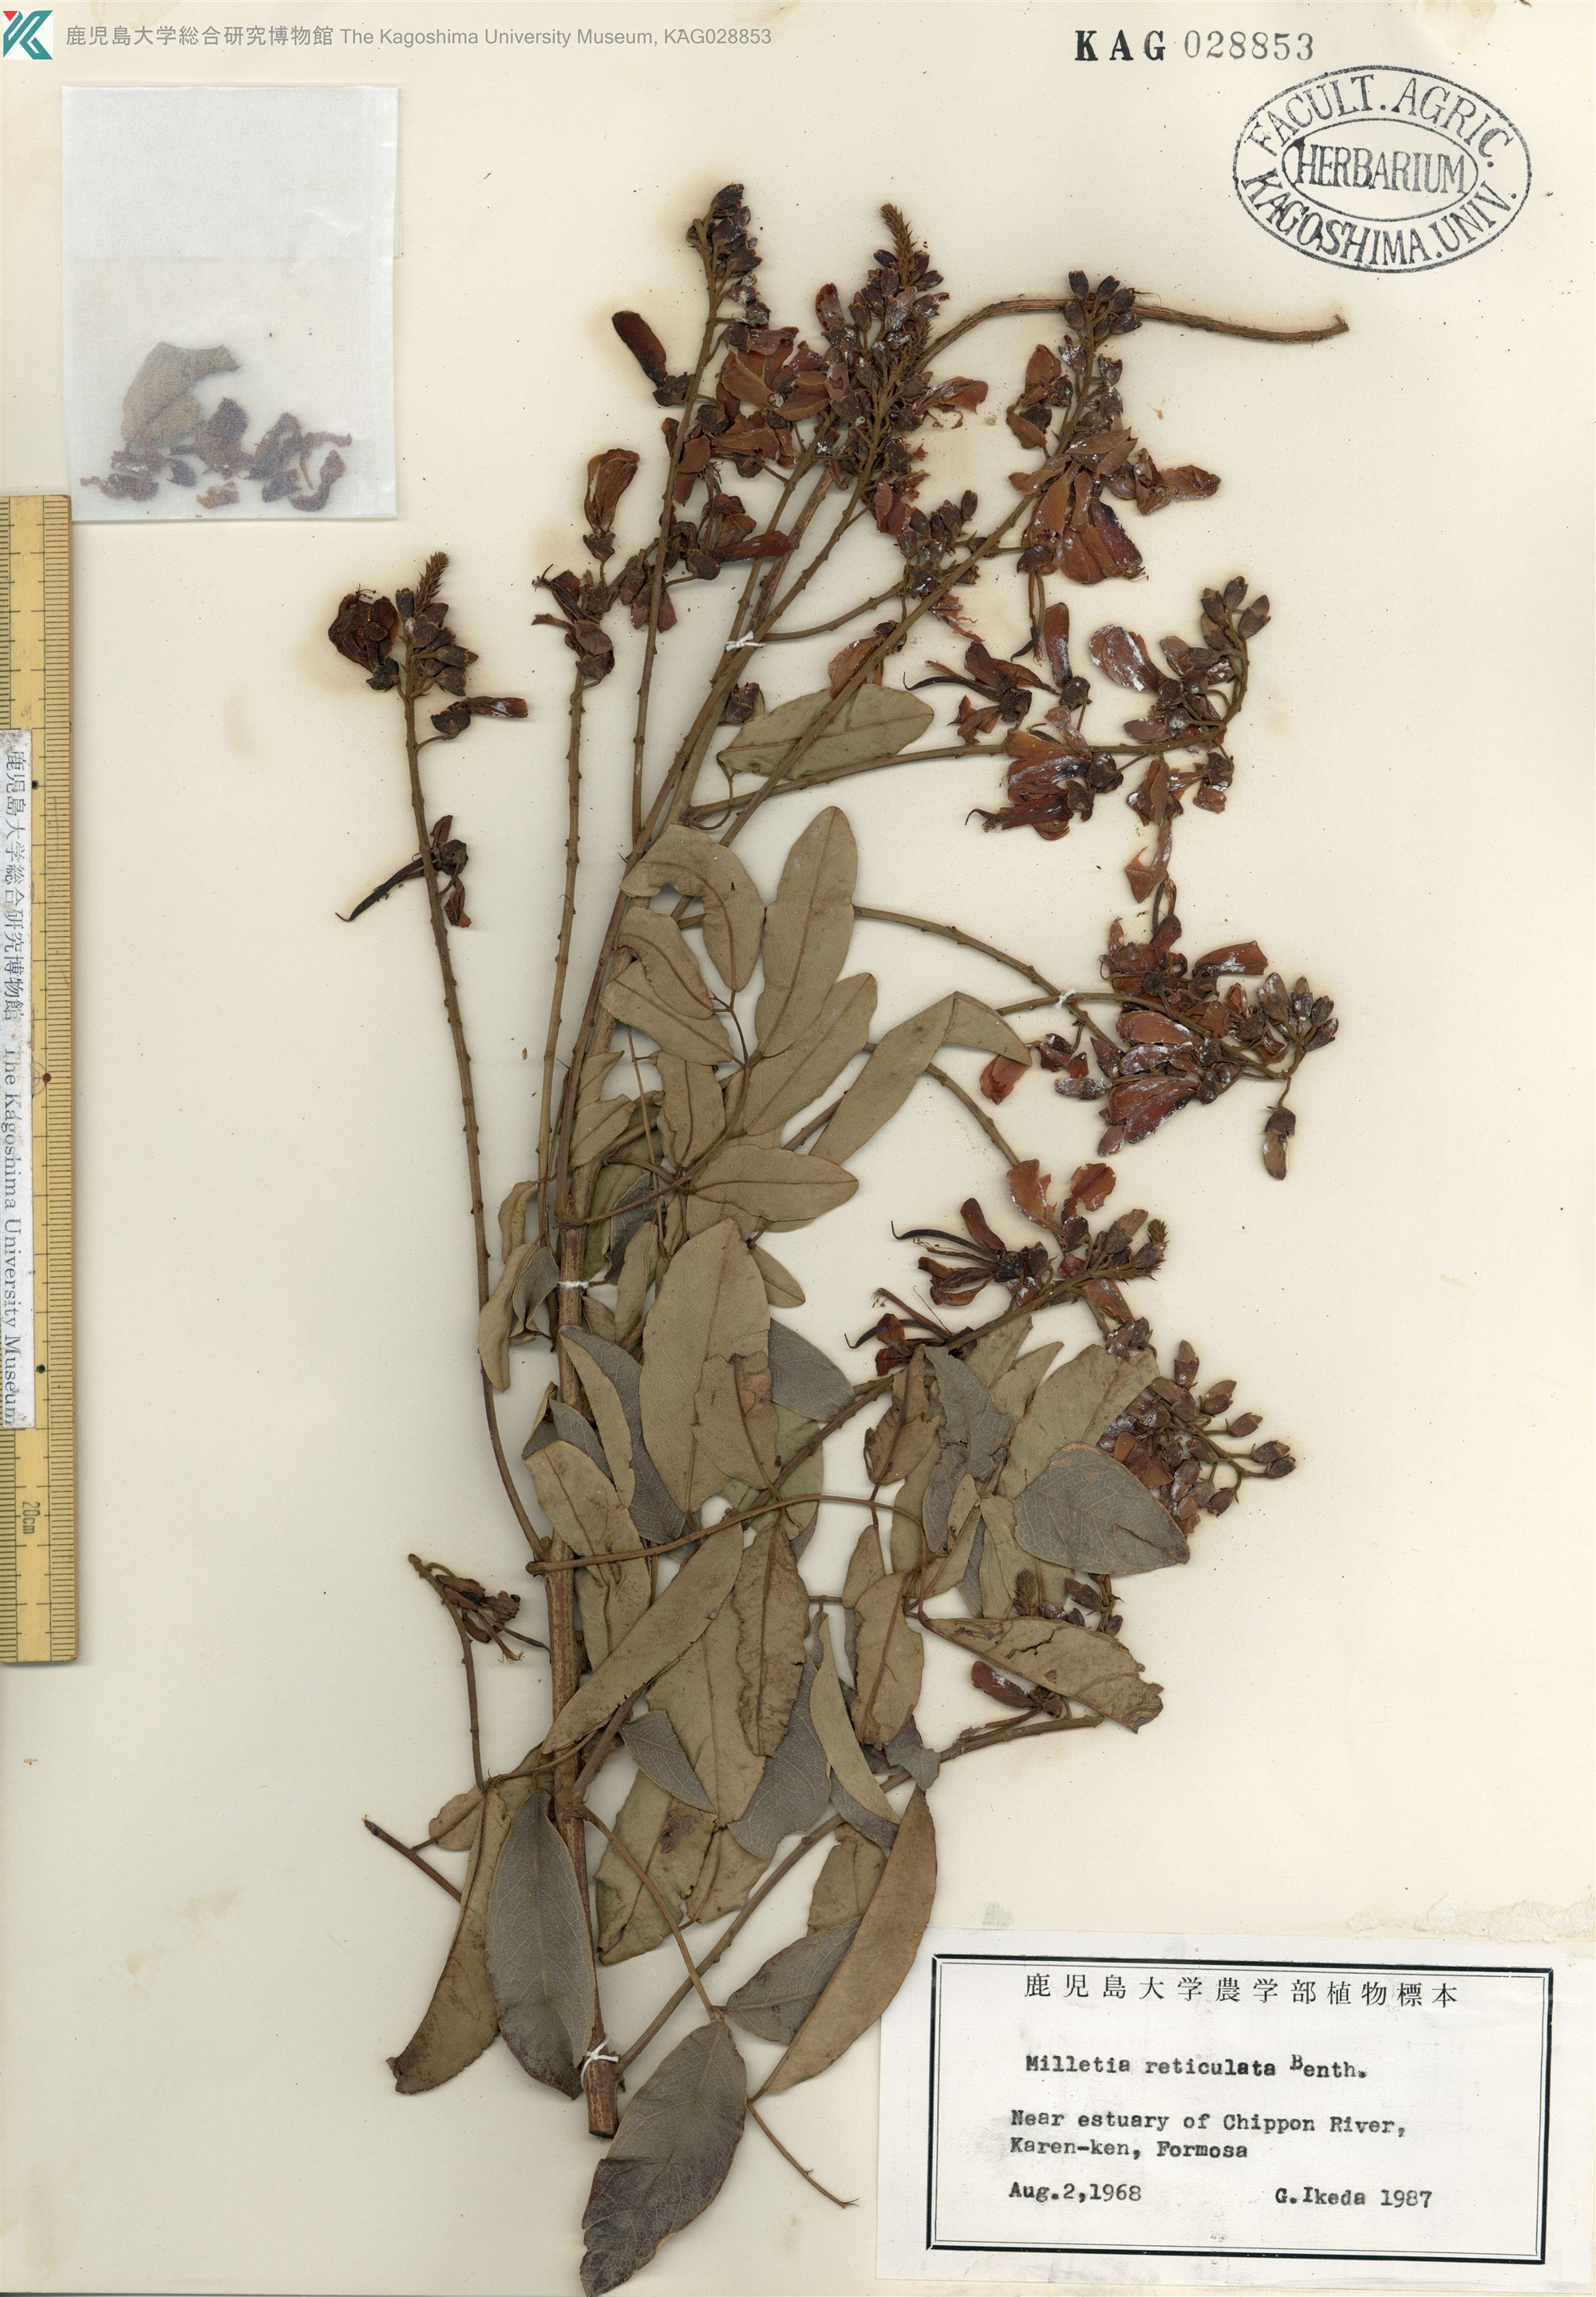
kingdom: Plantae
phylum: Tracheophyta
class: Magnoliopsida
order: Fabales
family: Fabaceae
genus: Wisteriopsis
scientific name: Wisteriopsis reticulata
